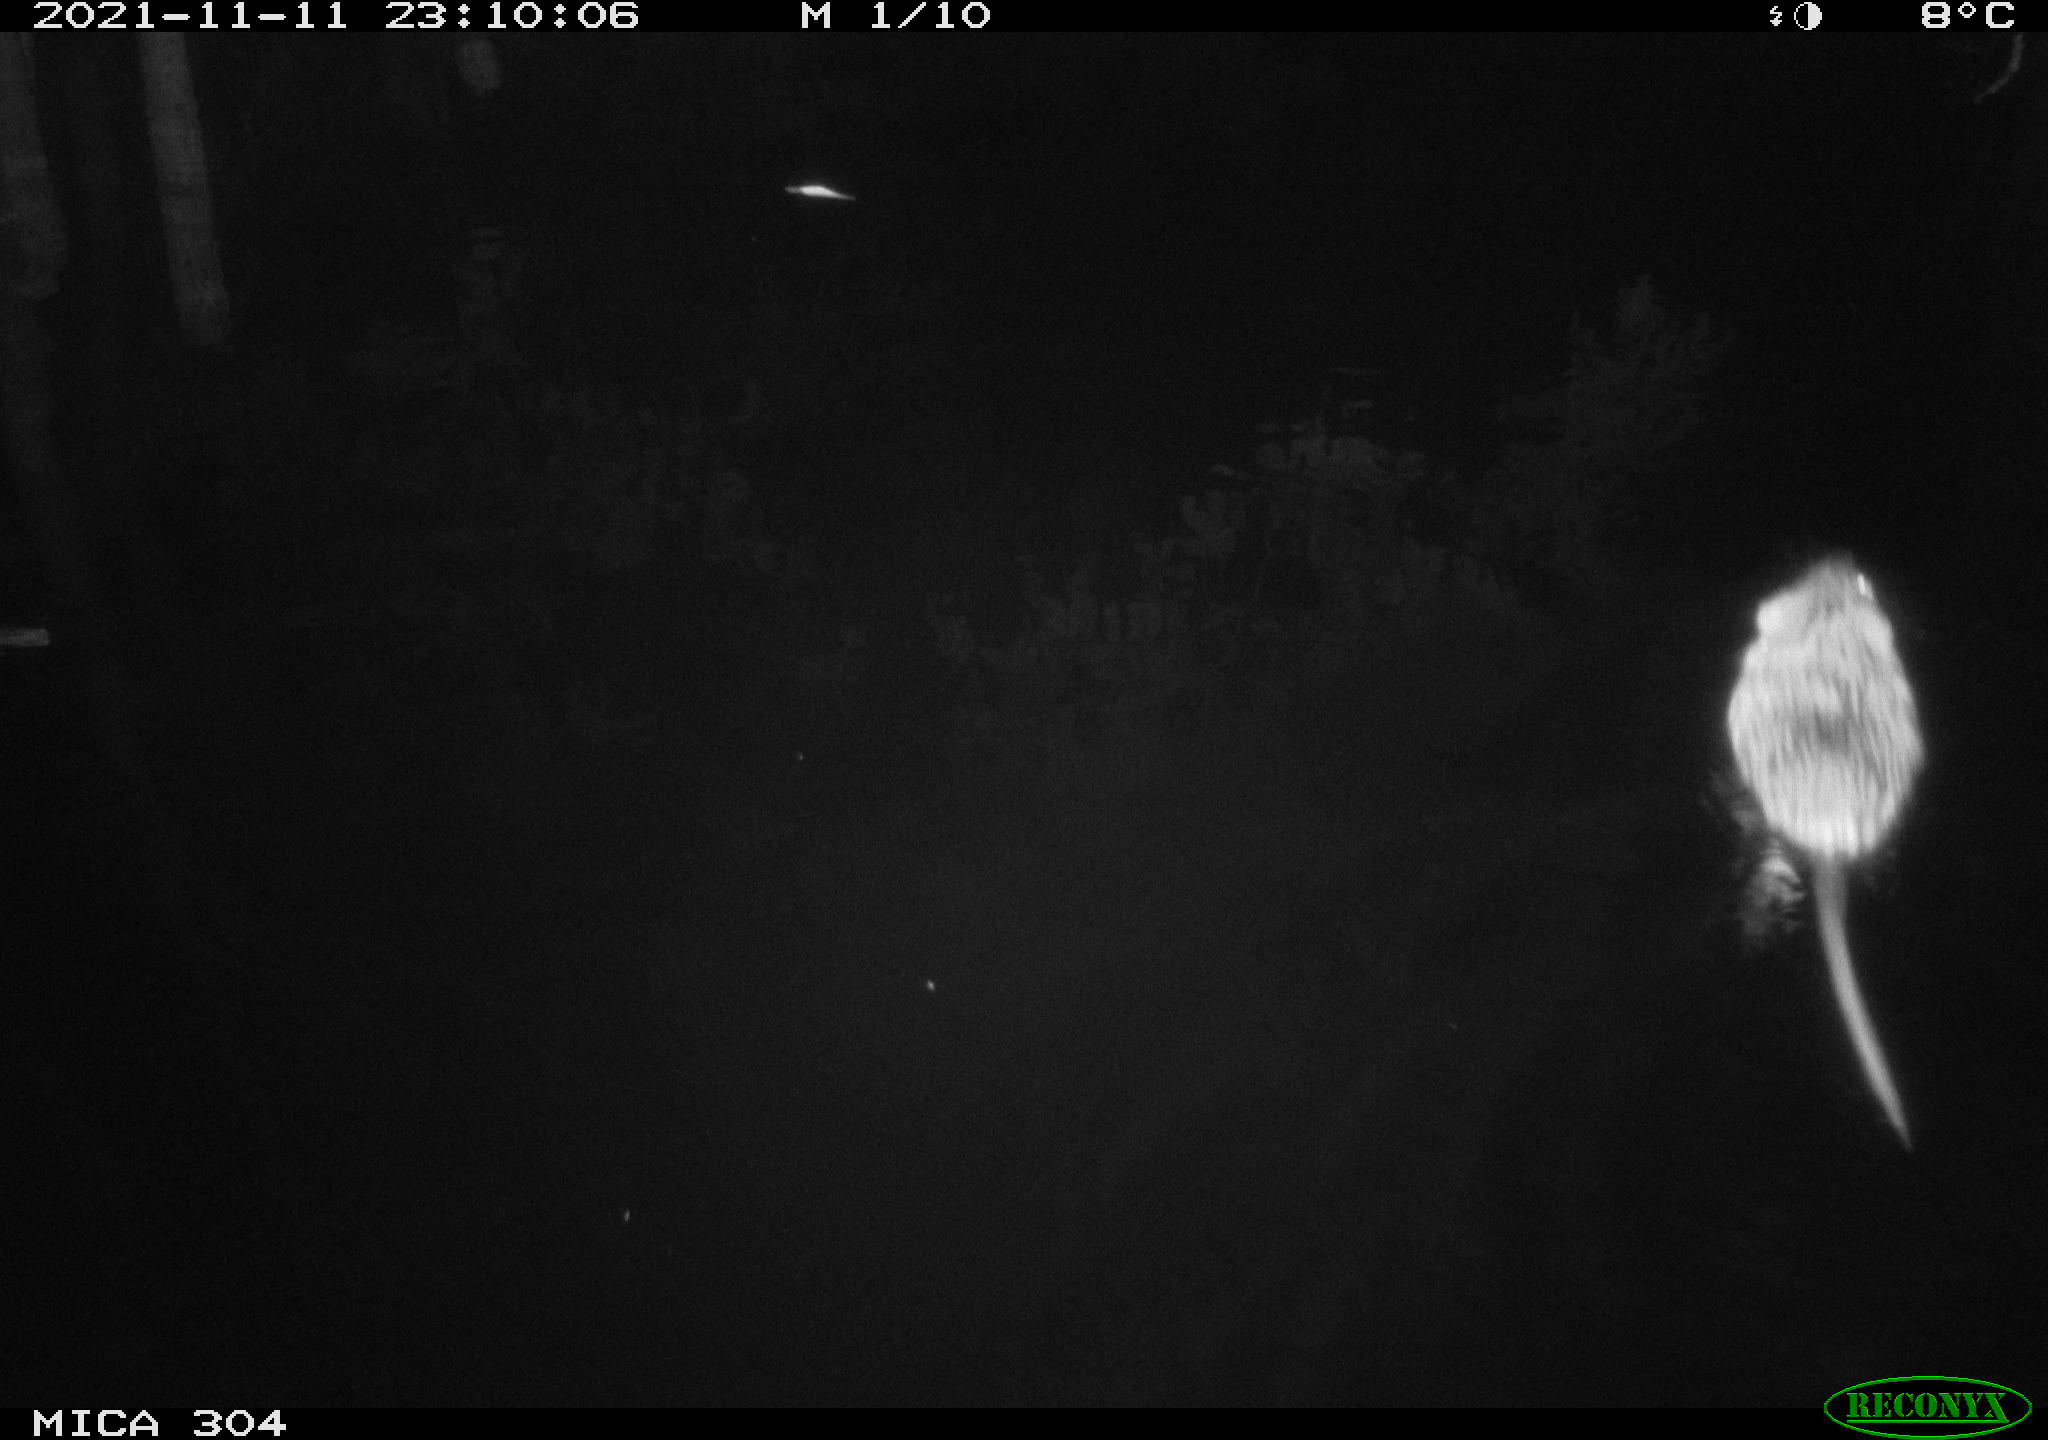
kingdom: Animalia
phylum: Chordata
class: Mammalia
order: Rodentia
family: Cricetidae
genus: Ondatra
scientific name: Ondatra zibethicus
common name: Muskrat
